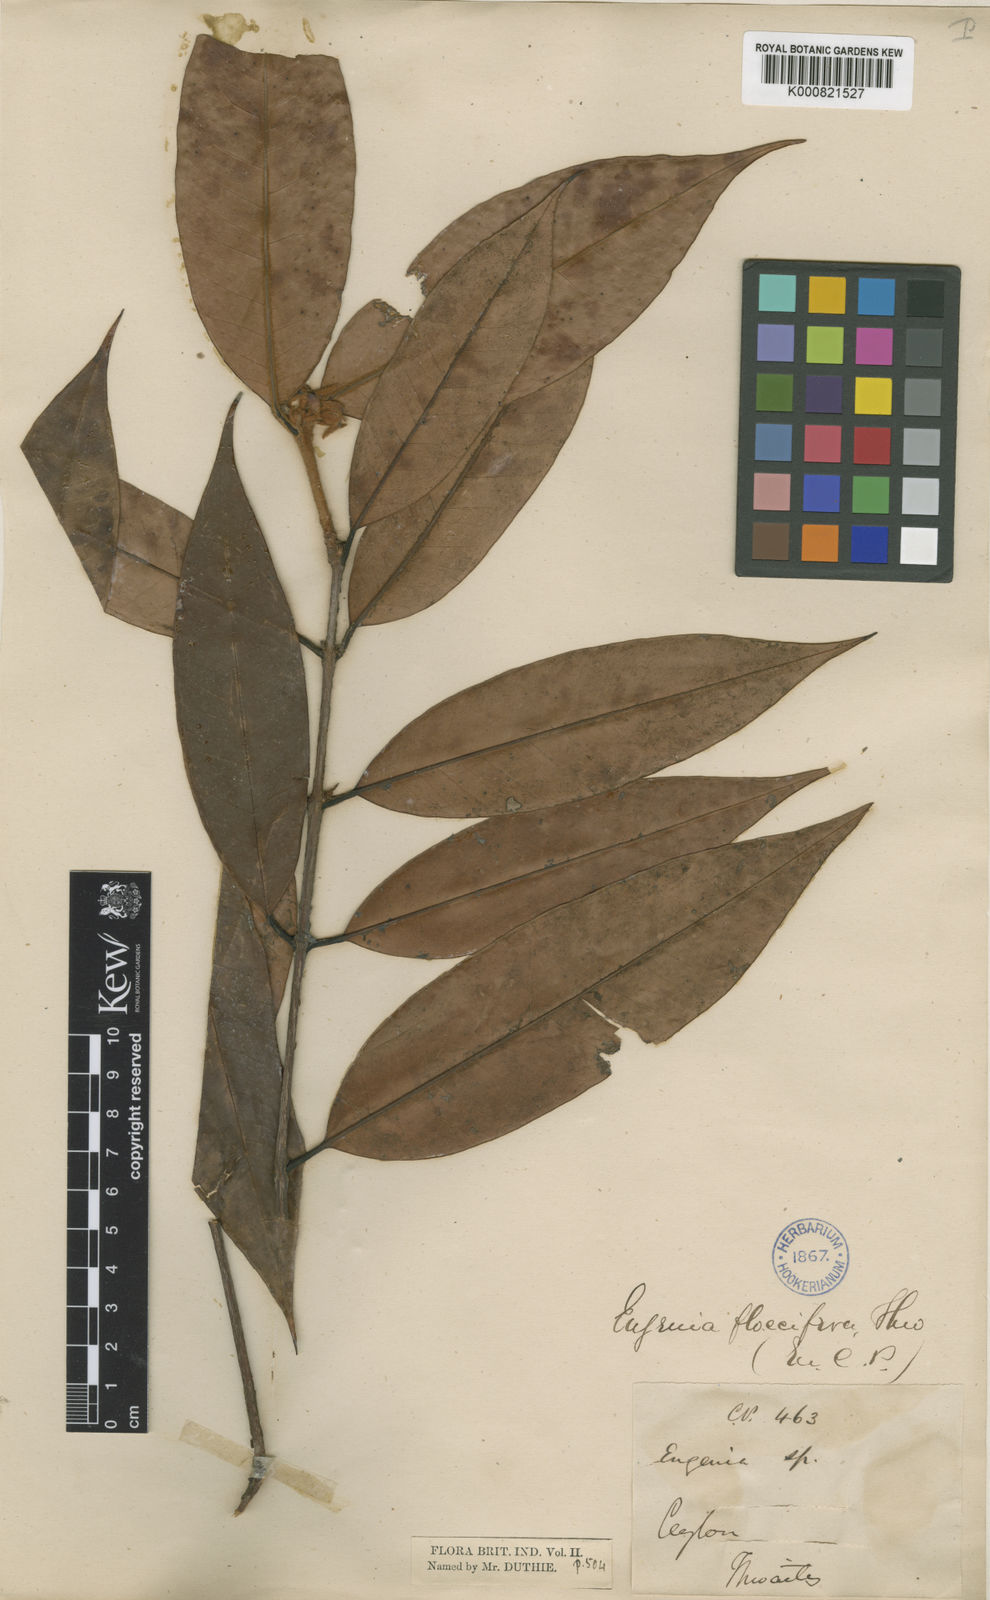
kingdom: Plantae
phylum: Tracheophyta
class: Magnoliopsida
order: Myrtales
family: Myrtaceae
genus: Eugenia
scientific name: Eugenia fulva
